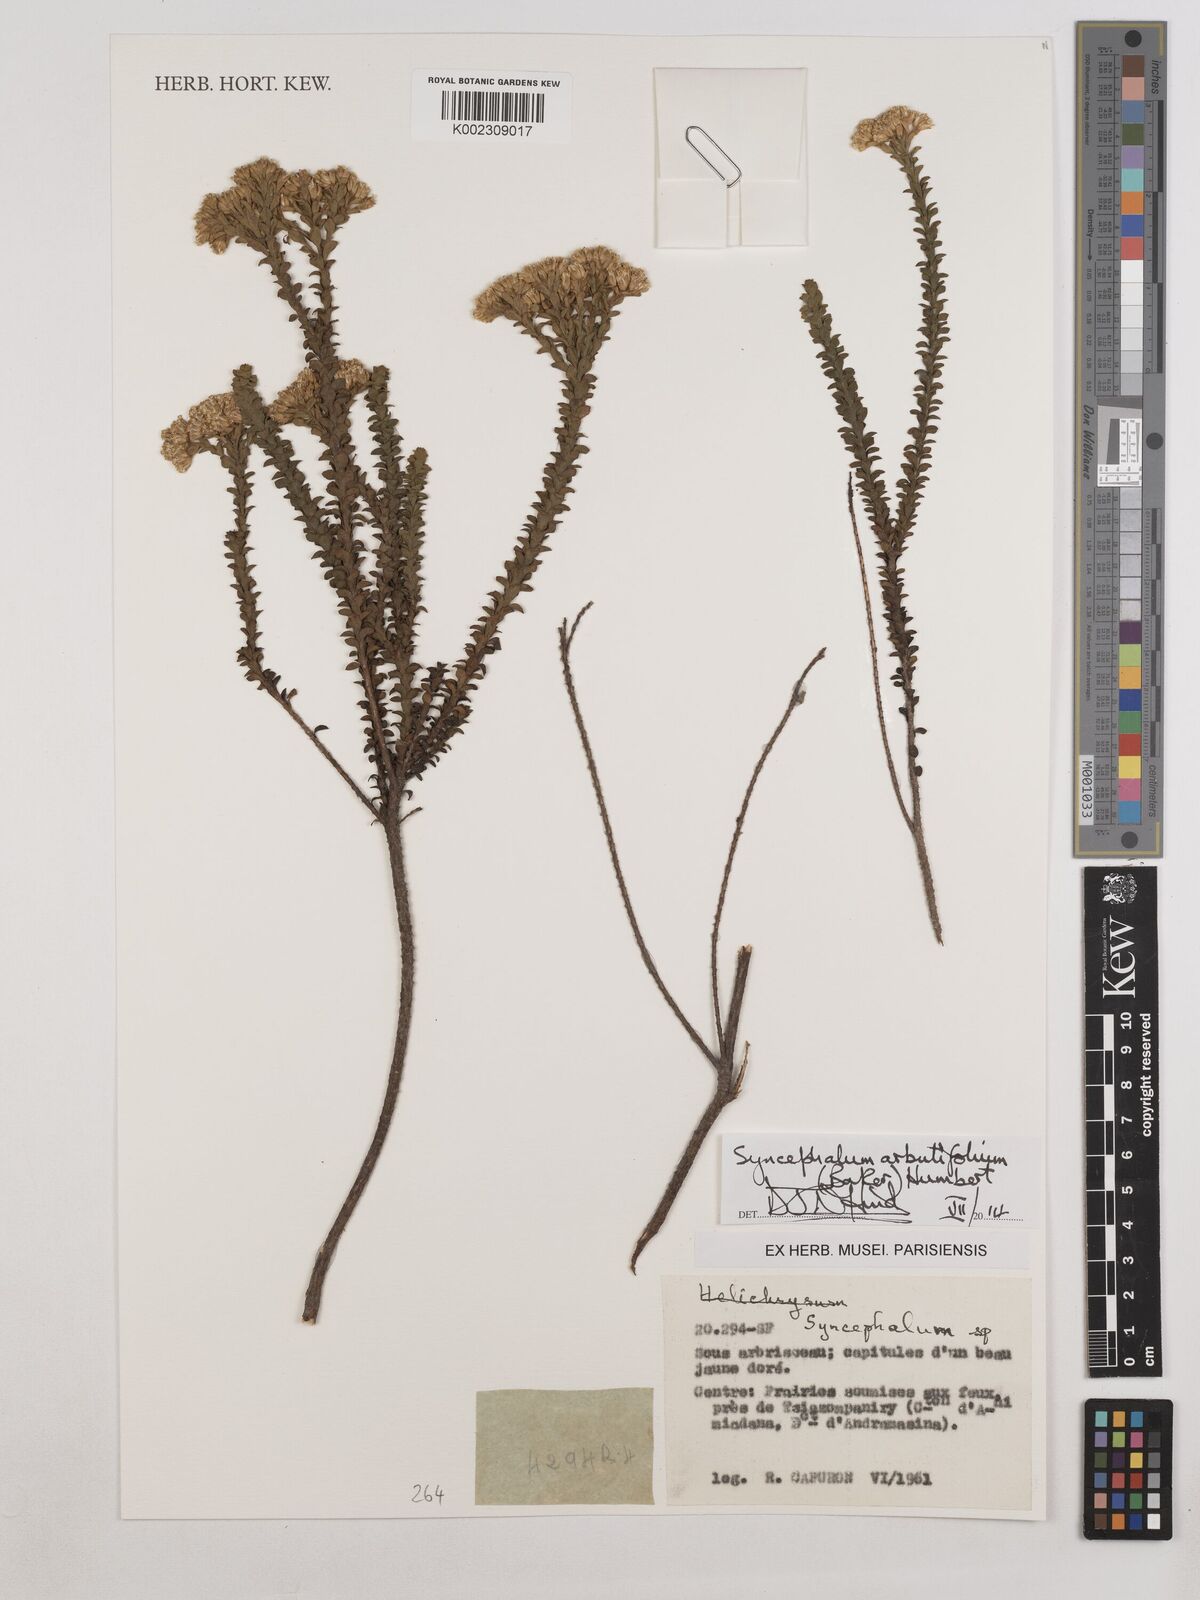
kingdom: Plantae
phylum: Tracheophyta
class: Magnoliopsida
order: Asterales
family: Asteraceae
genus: Syncephalum
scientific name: Syncephalum arbutifolium
